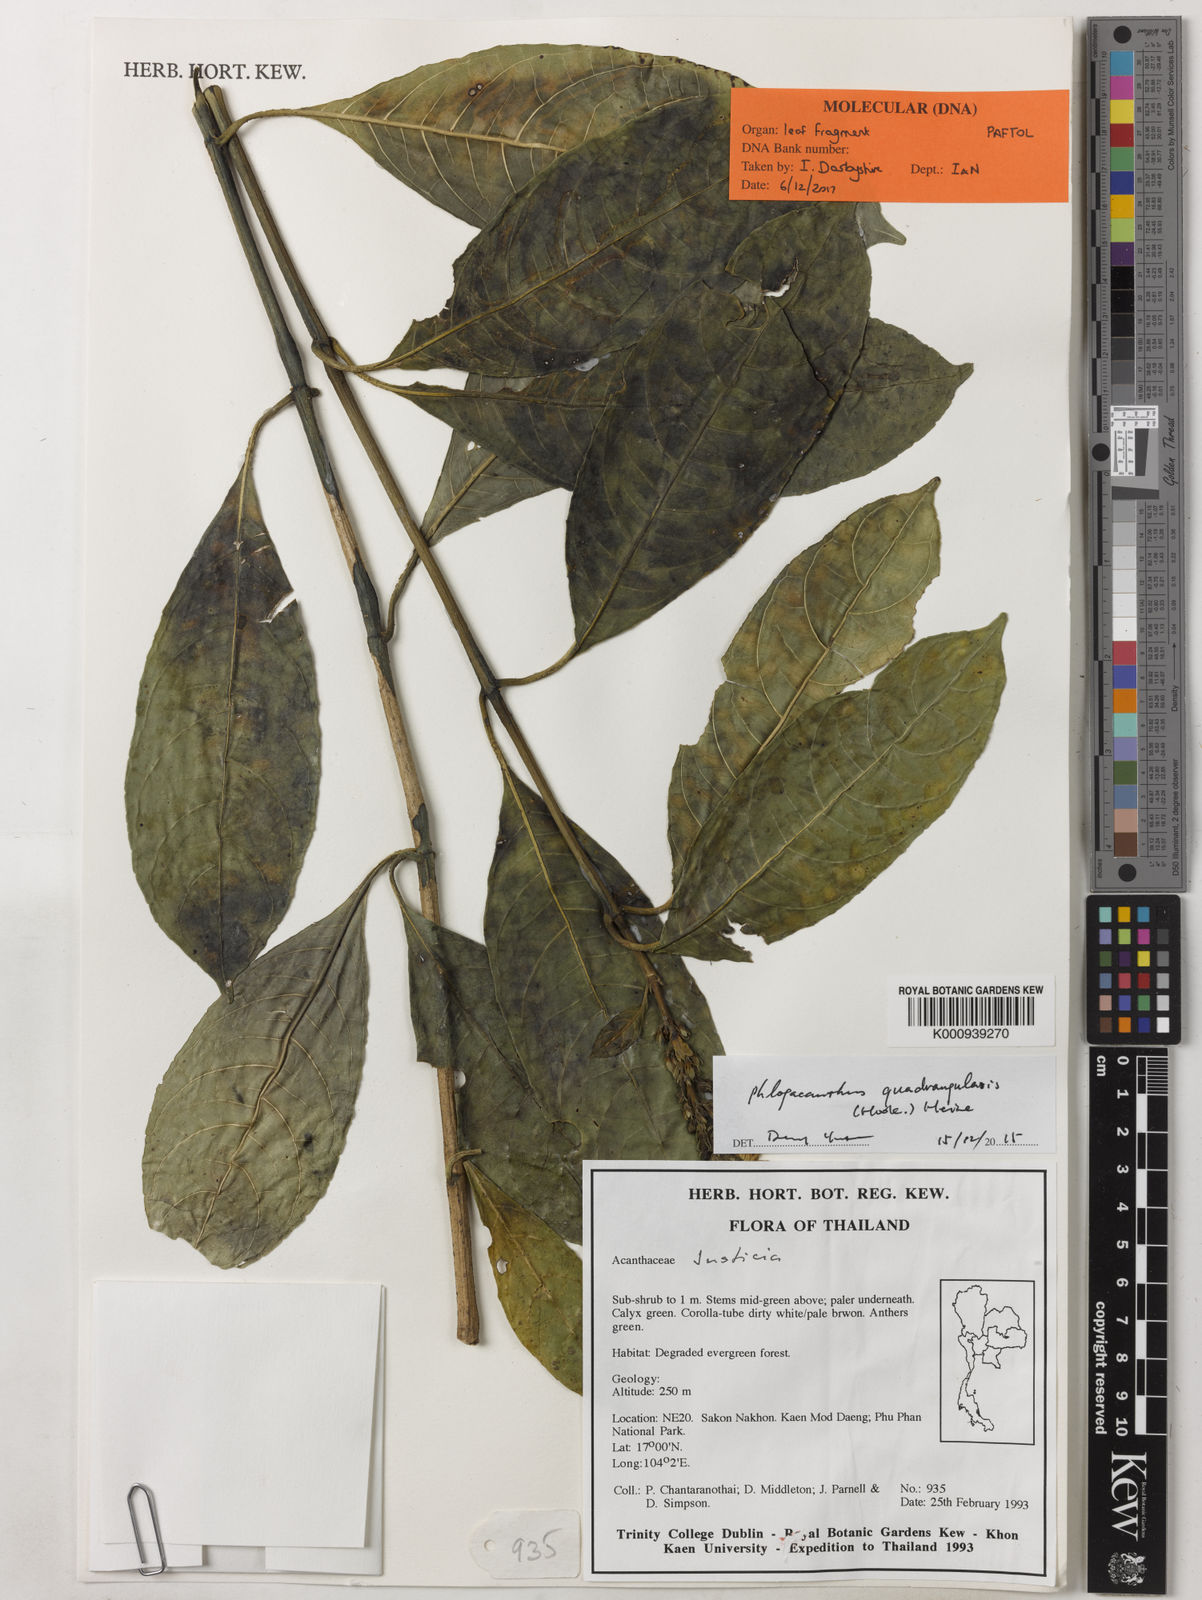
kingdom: Plantae
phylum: Tracheophyta
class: Magnoliopsida
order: Lamiales
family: Acanthaceae
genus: Phlogacanthus
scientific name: Phlogacanthus vitellinus
